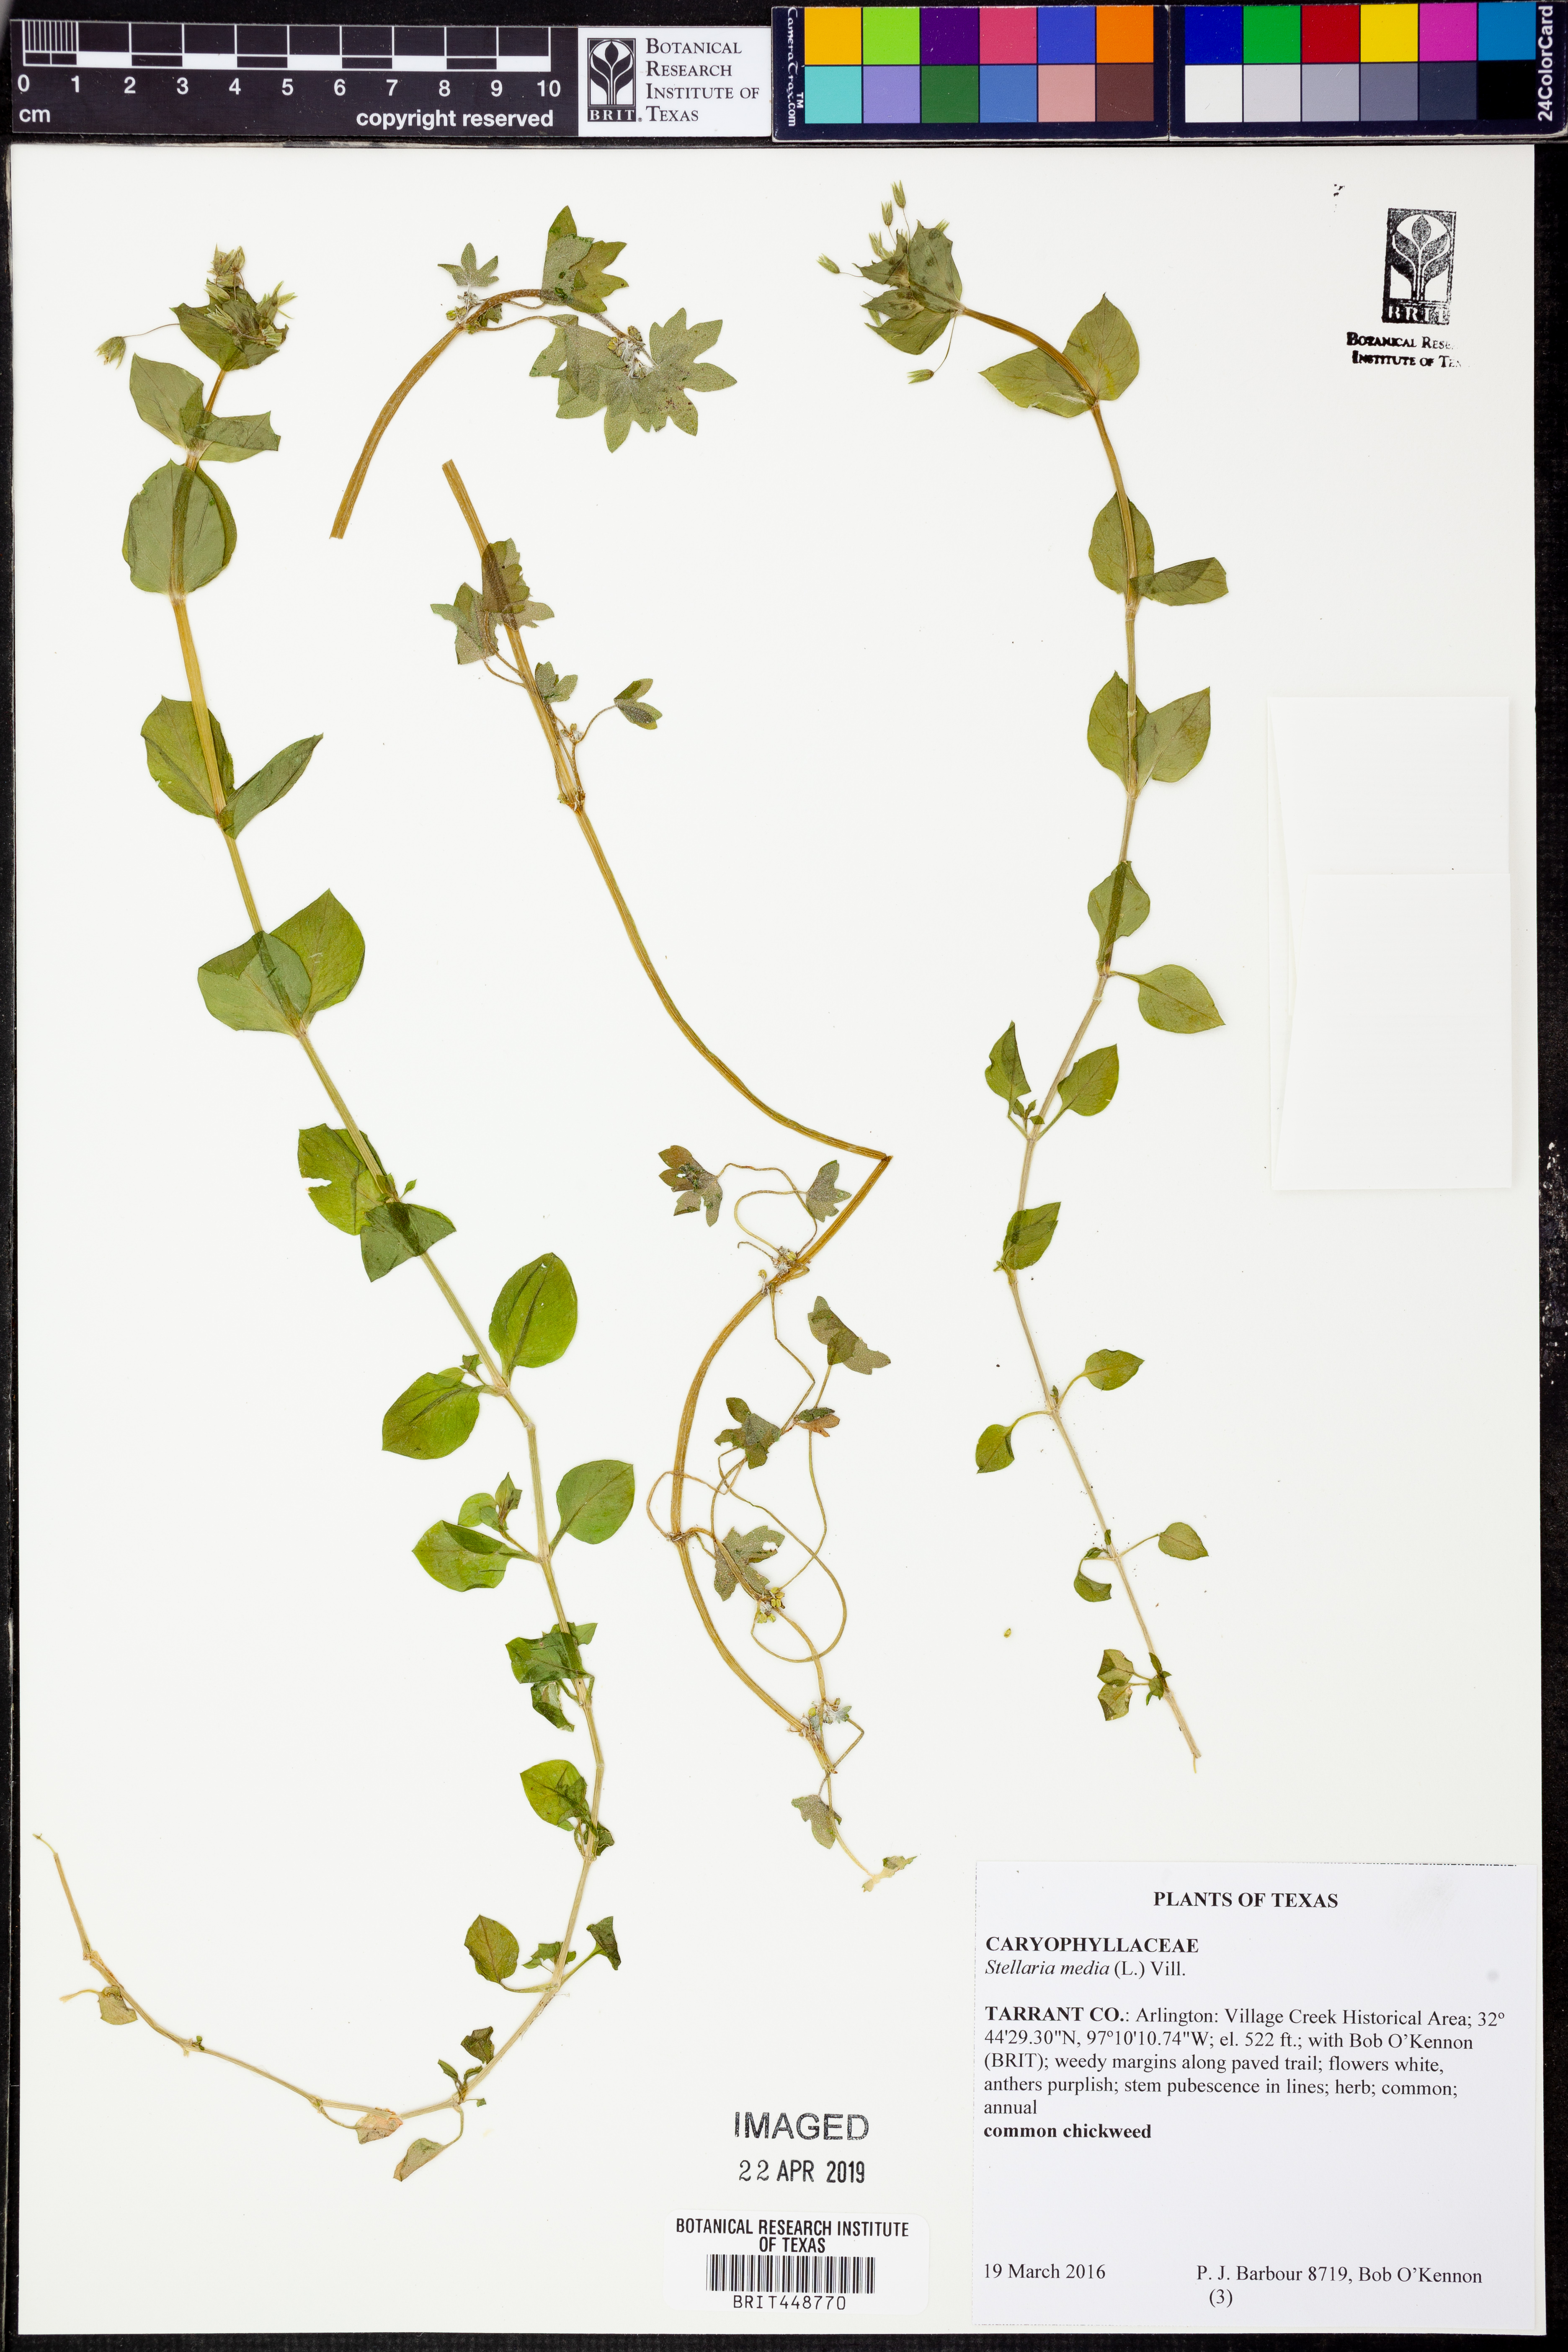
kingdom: Plantae
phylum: Tracheophyta
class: Magnoliopsida
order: Caryophyllales
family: Caryophyllaceae
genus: Stellaria
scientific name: Stellaria media
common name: Common chickweed
